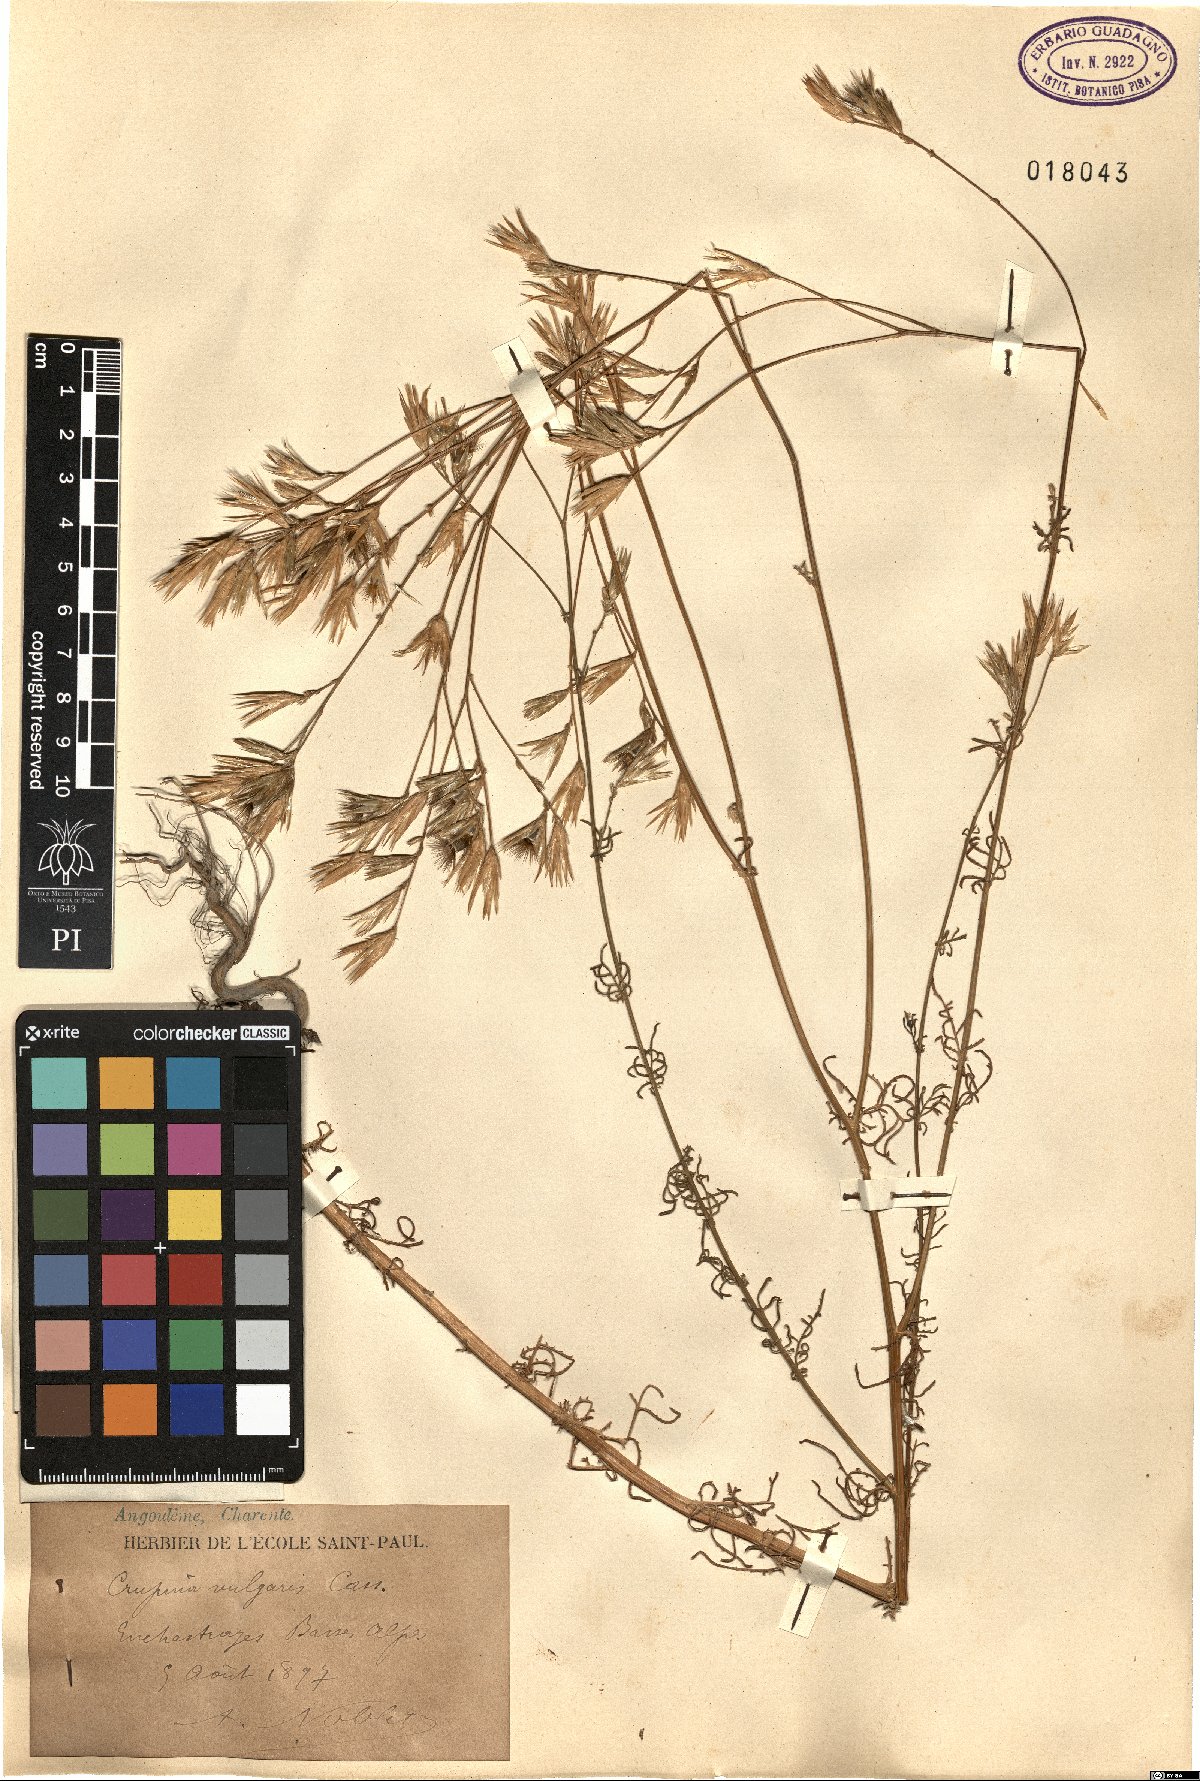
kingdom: Plantae
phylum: Tracheophyta
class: Magnoliopsida
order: Asterales
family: Asteraceae
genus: Crupina
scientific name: Crupina vulgaris
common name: Common crupina
